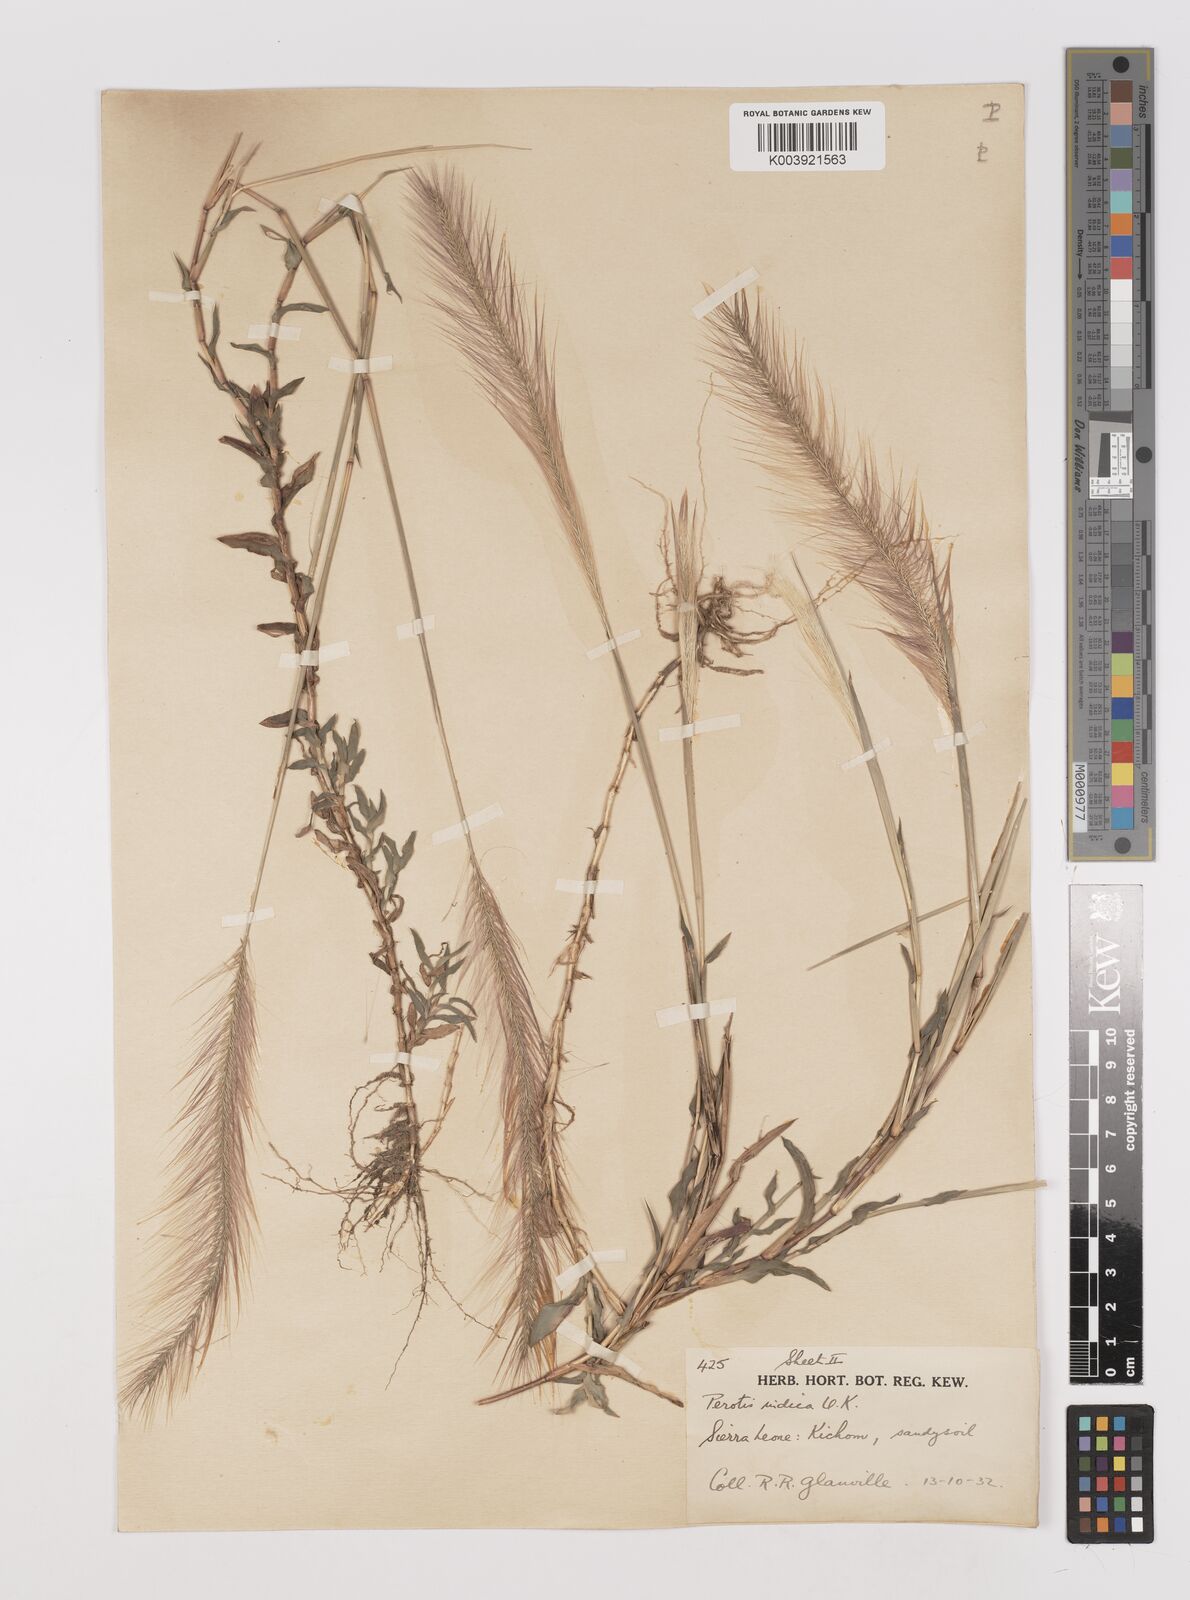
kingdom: Plantae
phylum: Tracheophyta
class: Liliopsida
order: Poales
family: Poaceae
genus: Perotis
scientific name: Perotis scabra
